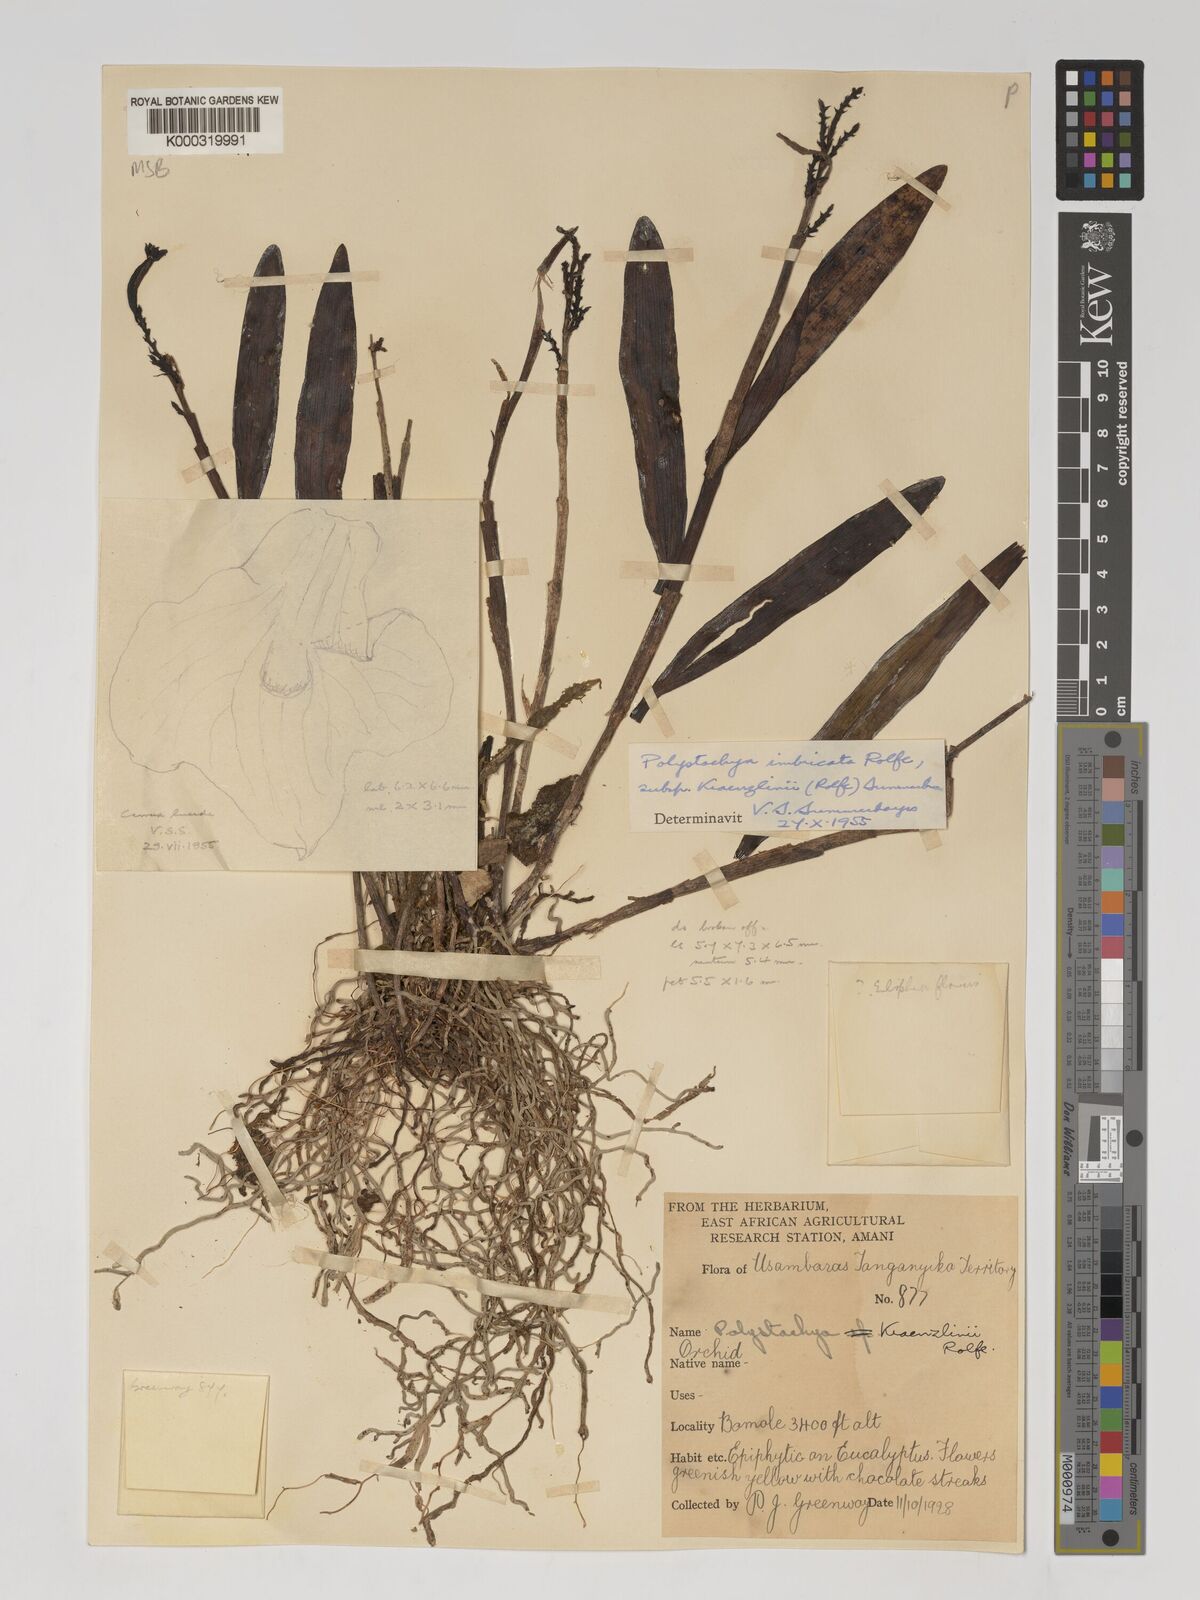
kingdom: Plantae
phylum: Tracheophyta
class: Liliopsida
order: Asparagales
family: Orchidaceae
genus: Polystachya
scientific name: Polystachya albescens
